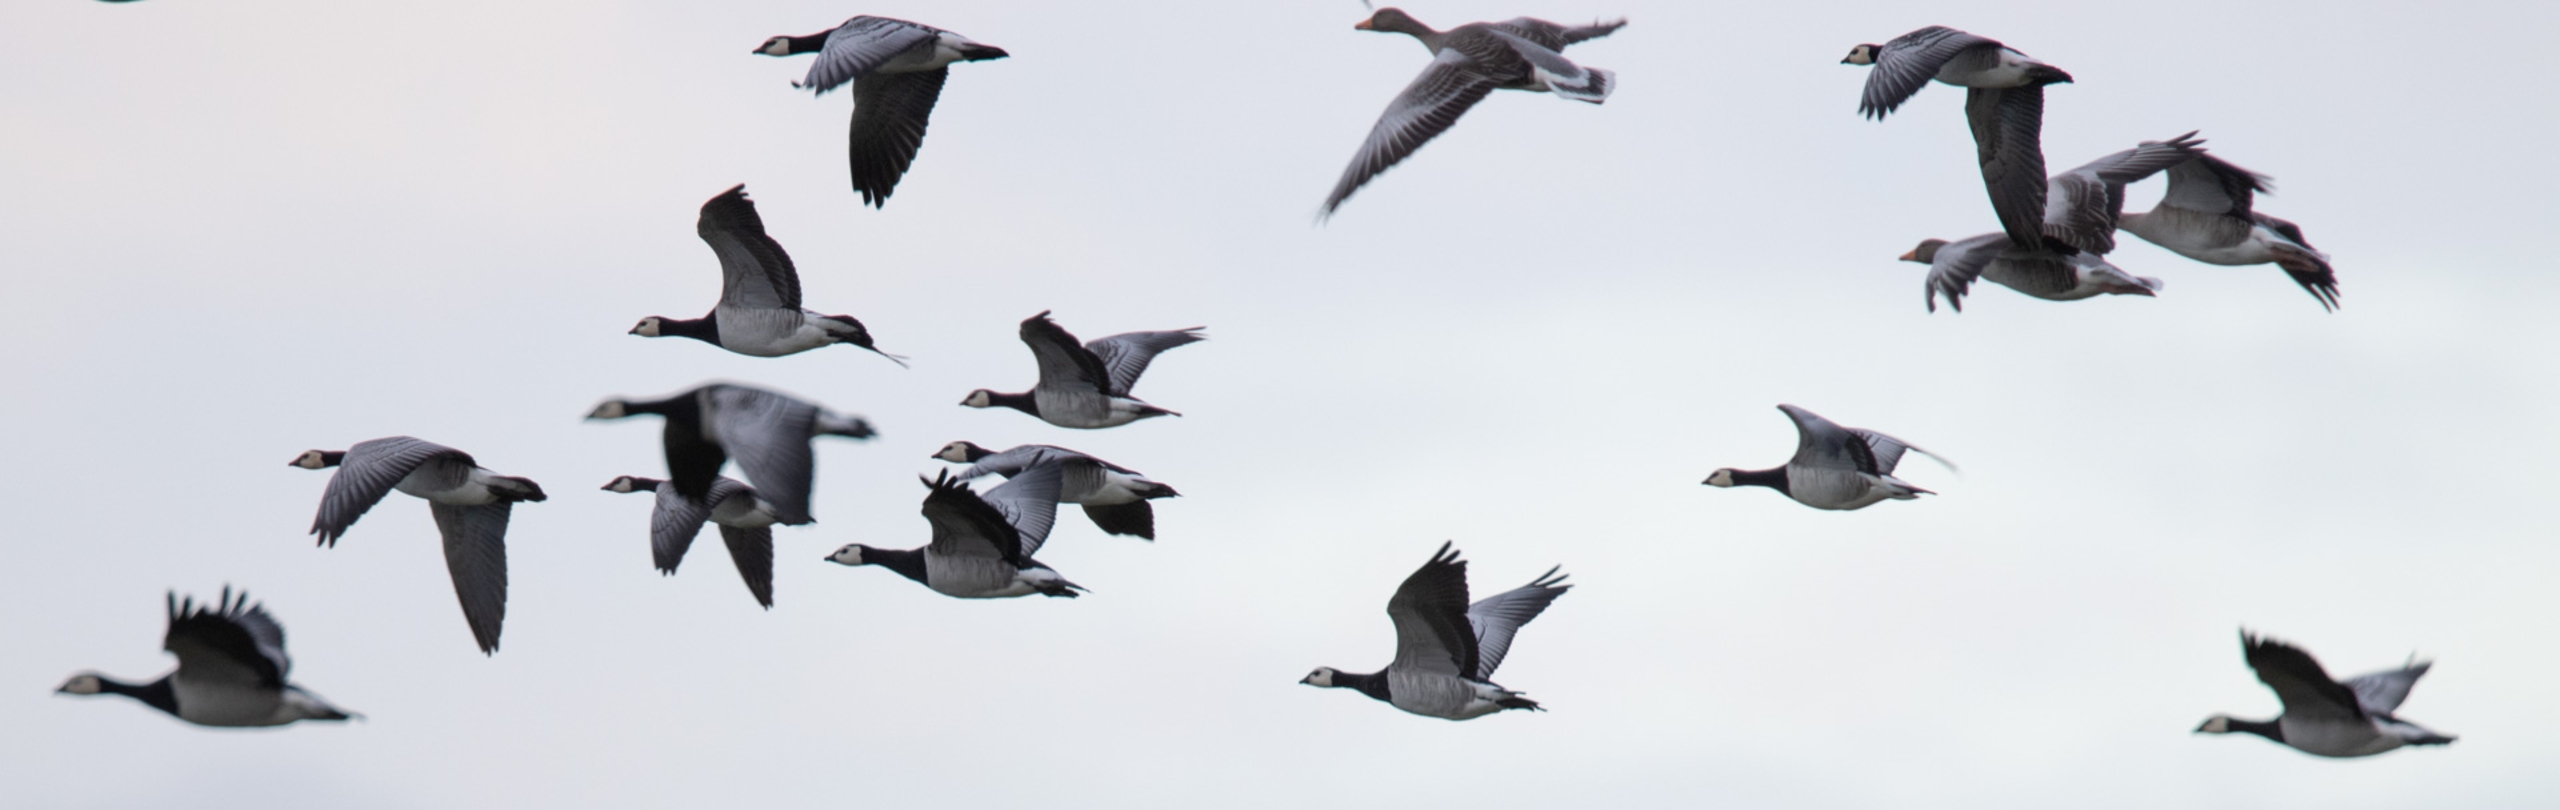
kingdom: Animalia
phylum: Chordata
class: Aves
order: Anseriformes
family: Anatidae
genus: Branta
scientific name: Branta leucopsis
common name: Bramgås
